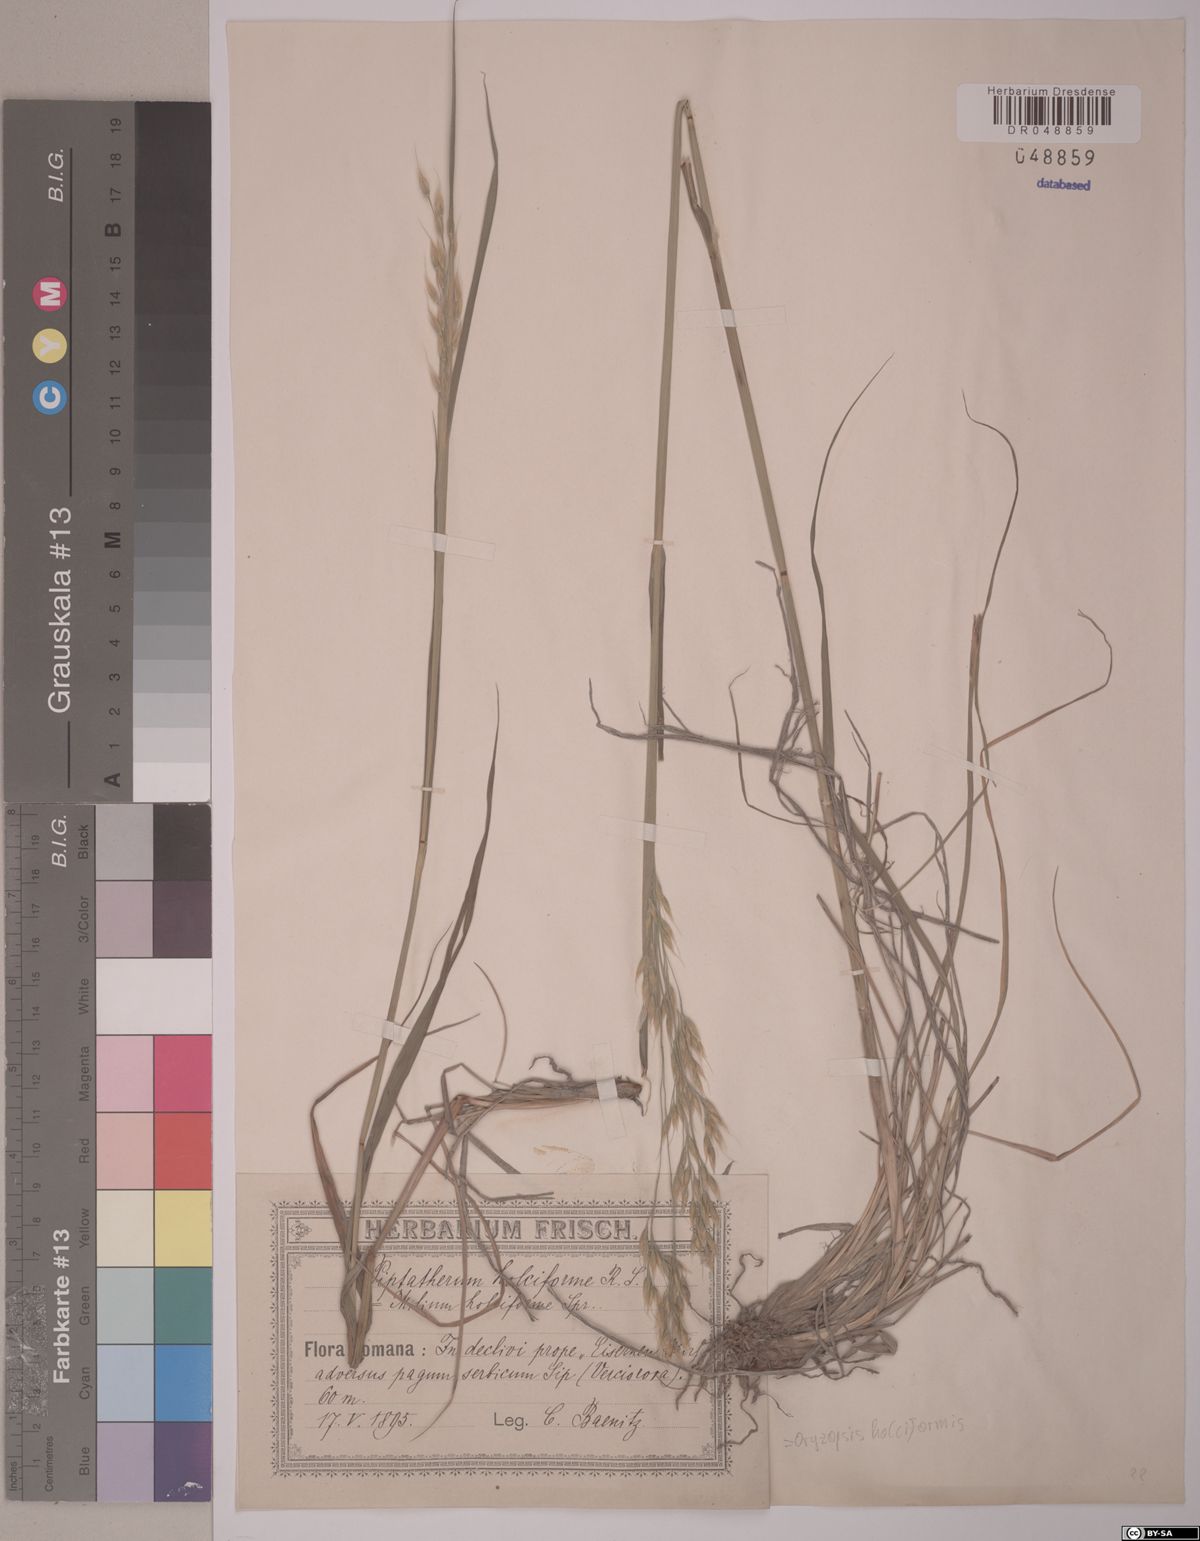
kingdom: Plantae
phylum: Tracheophyta
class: Liliopsida
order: Poales
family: Poaceae
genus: Piptatherum
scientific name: Piptatherum holciforme
